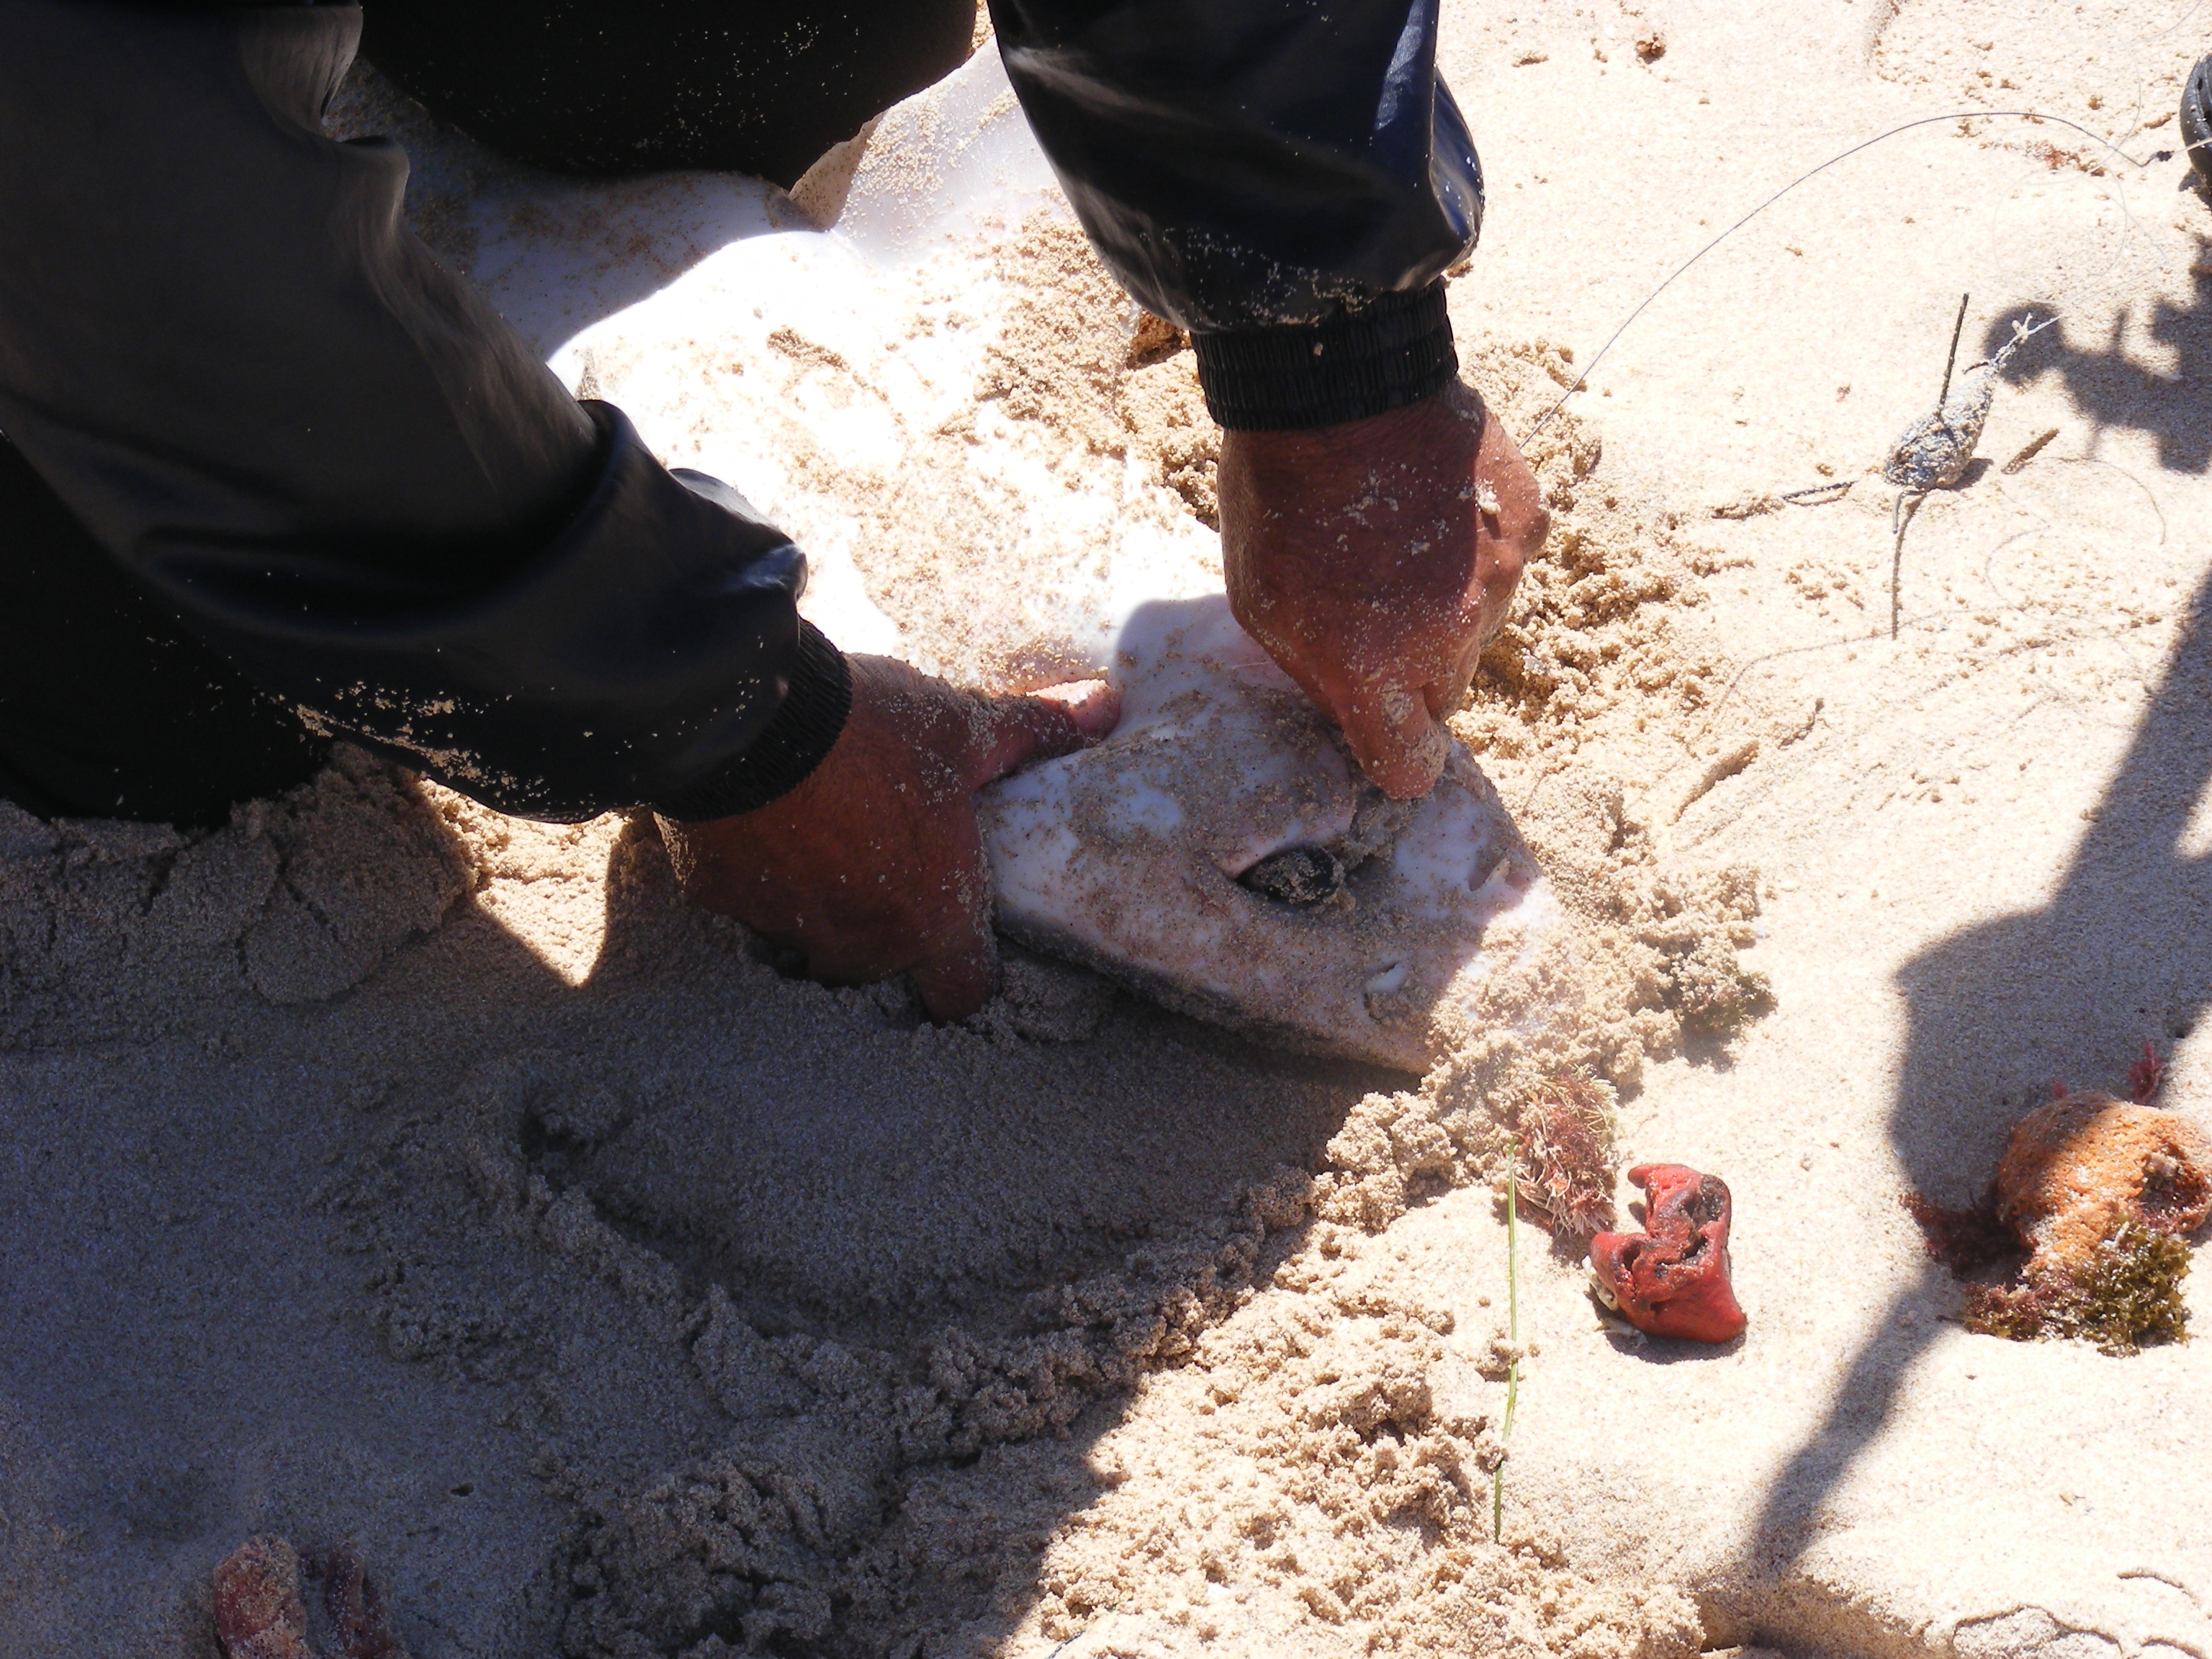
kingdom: Animalia
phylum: Chordata
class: Elasmobranchii
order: Carcharhiniformes
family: Triakidae
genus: Mustelus
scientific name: Mustelus mustelus
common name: Smooth-hound
